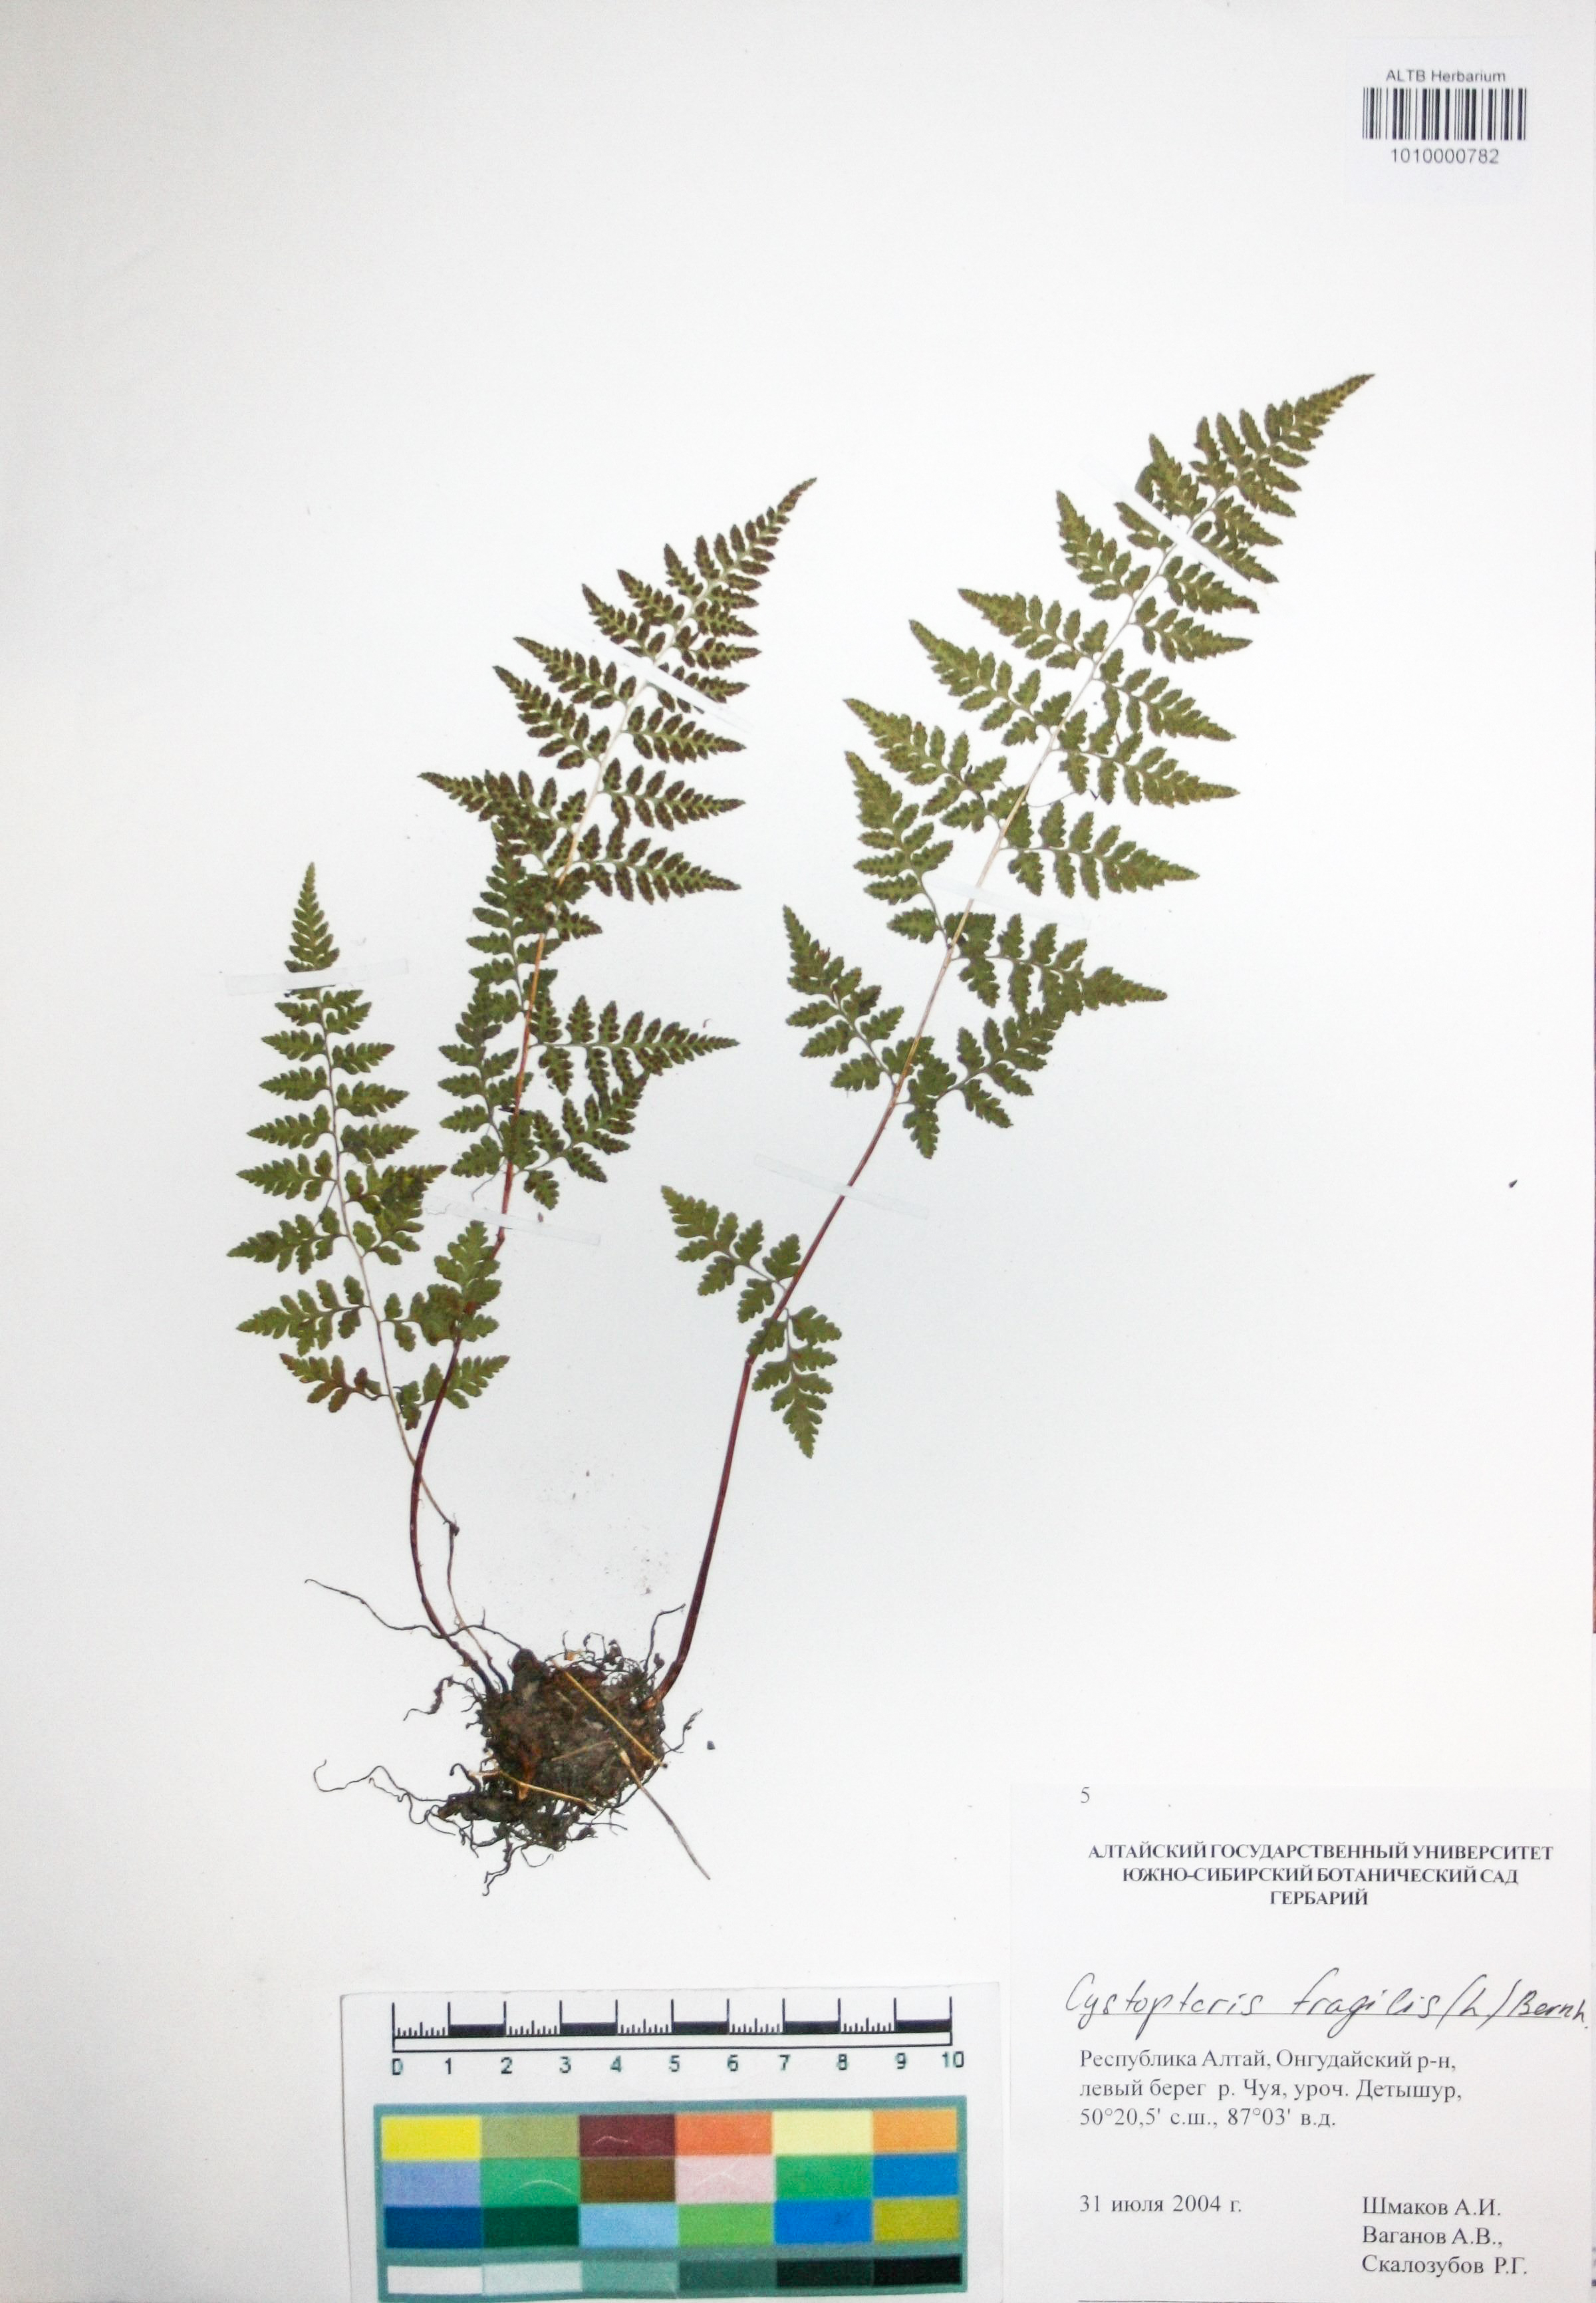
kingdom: Plantae
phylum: Tracheophyta
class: Polypodiopsida
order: Polypodiales
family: Cystopteridaceae
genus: Cystopteris
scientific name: Cystopteris fragilis
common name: Brittle bladder fern
